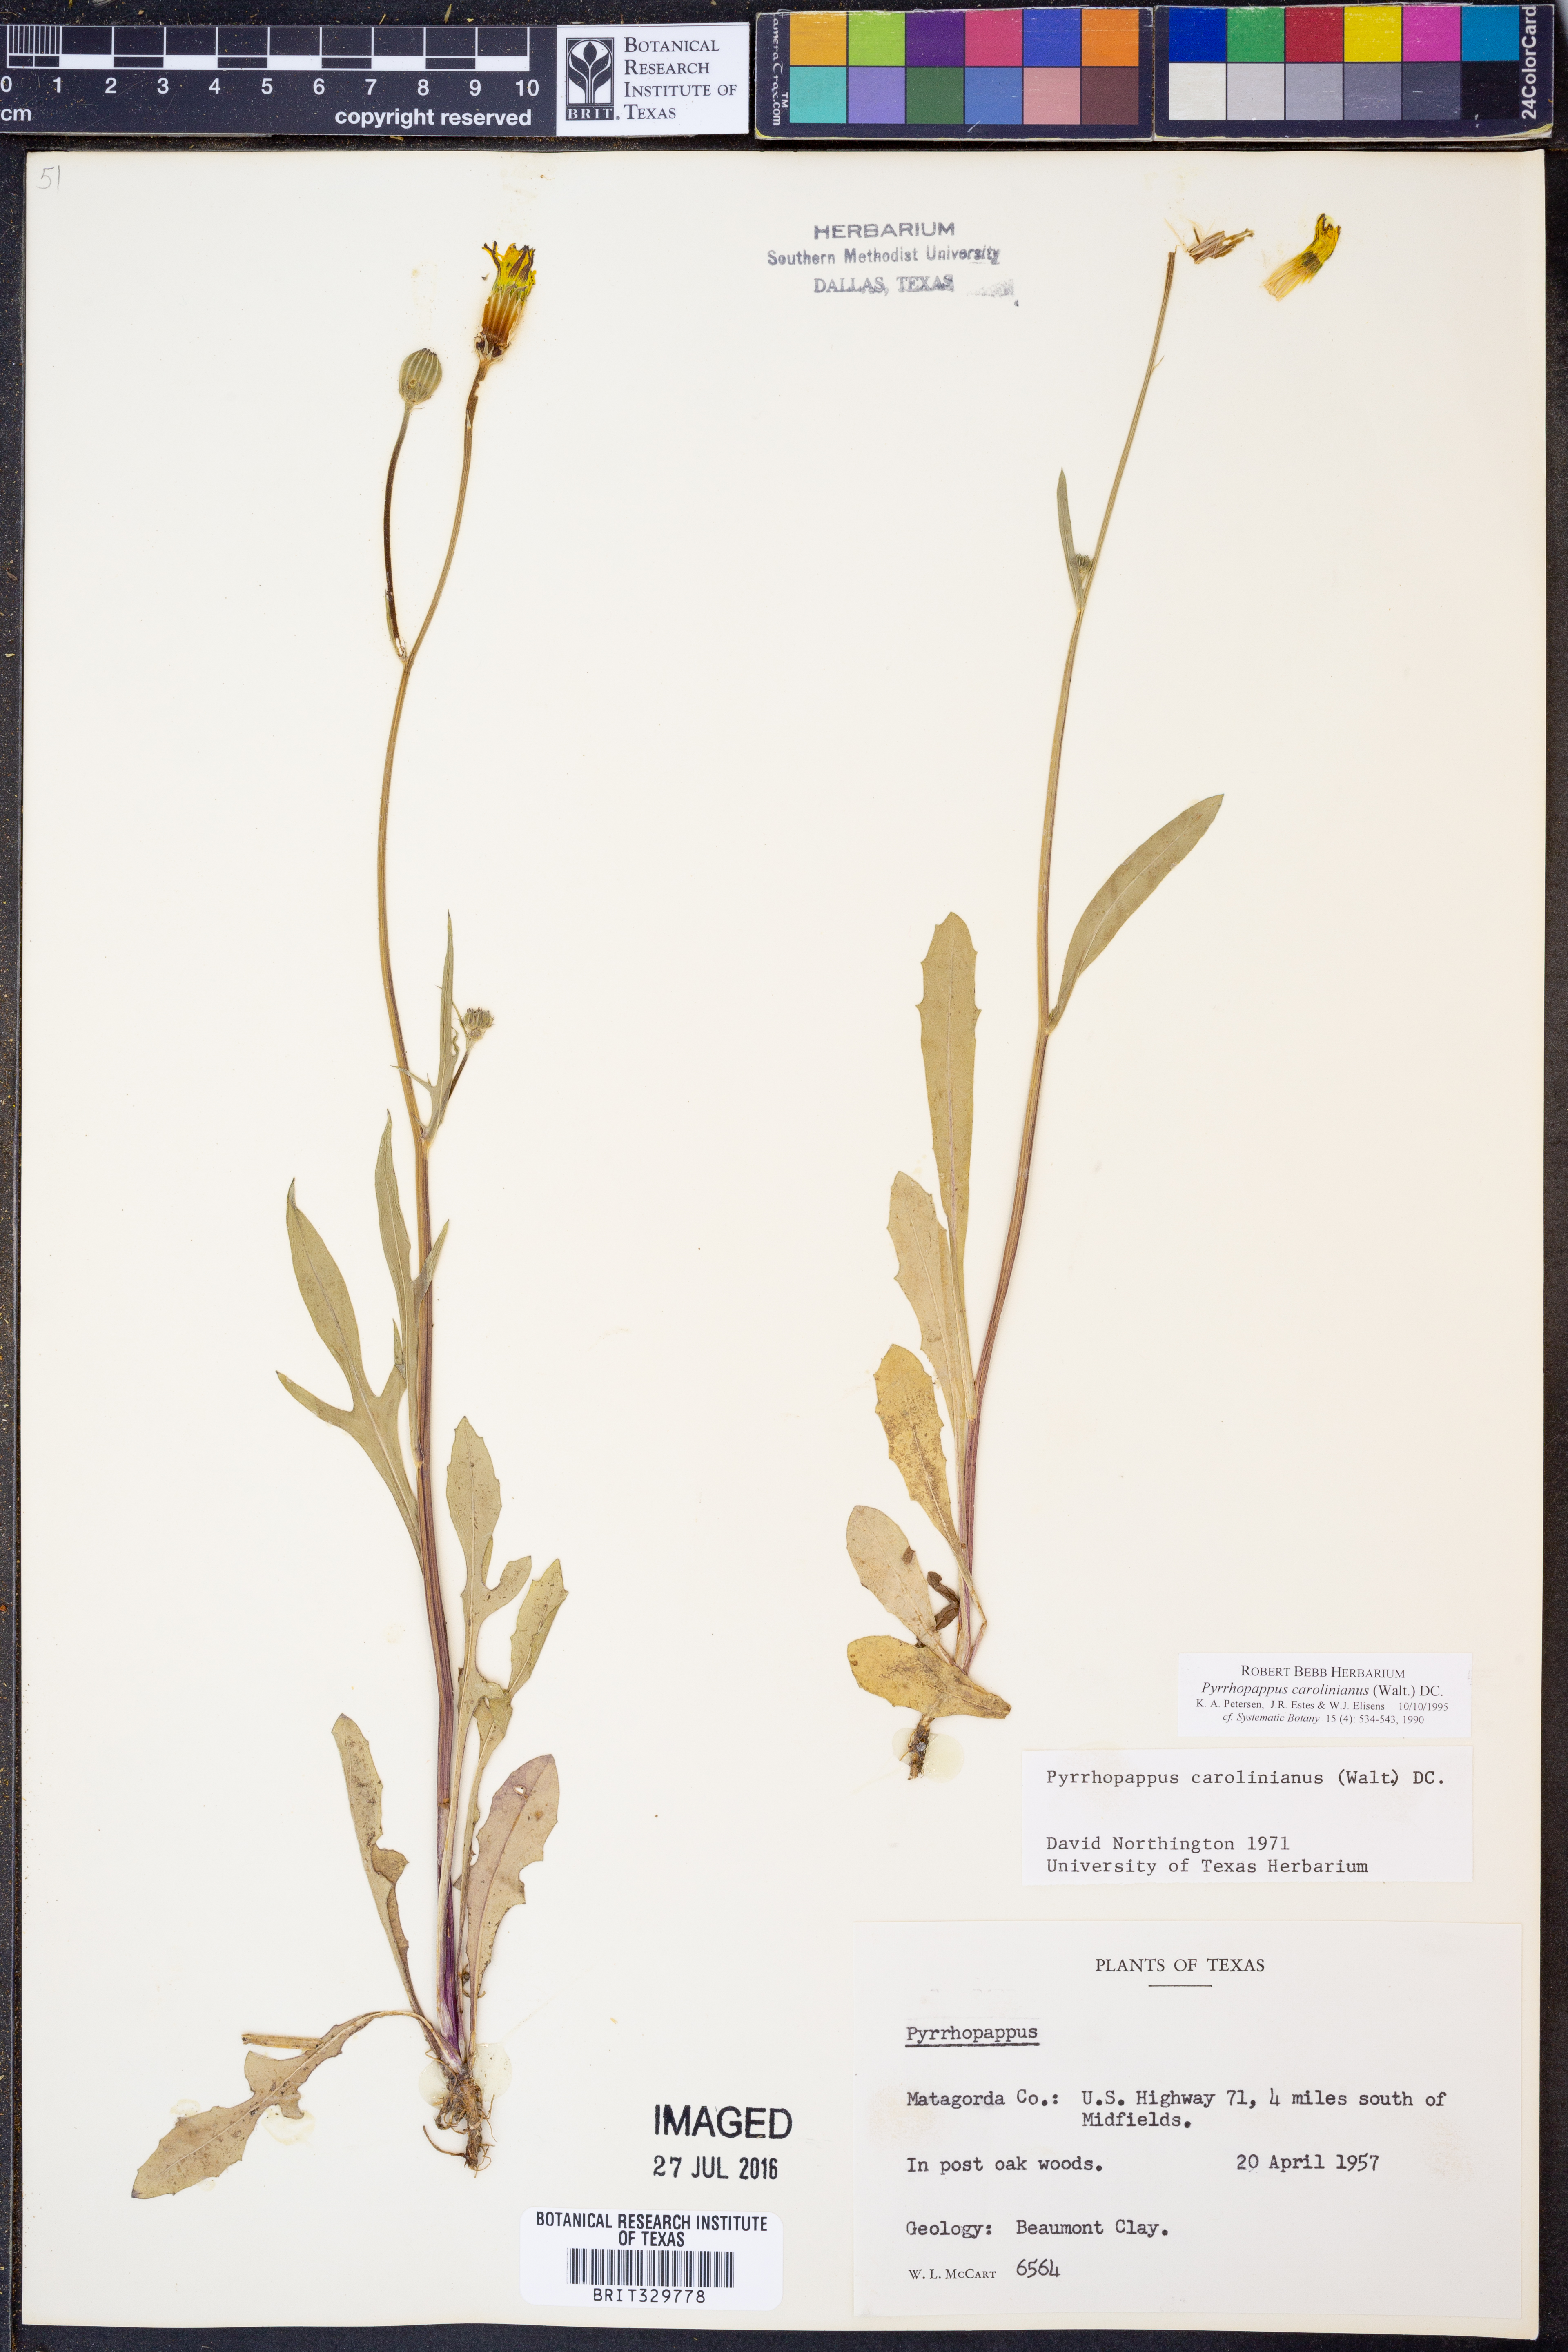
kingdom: Plantae
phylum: Tracheophyta
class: Magnoliopsida
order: Asterales
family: Asteraceae
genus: Pyrrhopappus
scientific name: Pyrrhopappus carolinianus
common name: Carolina desert-chicory
